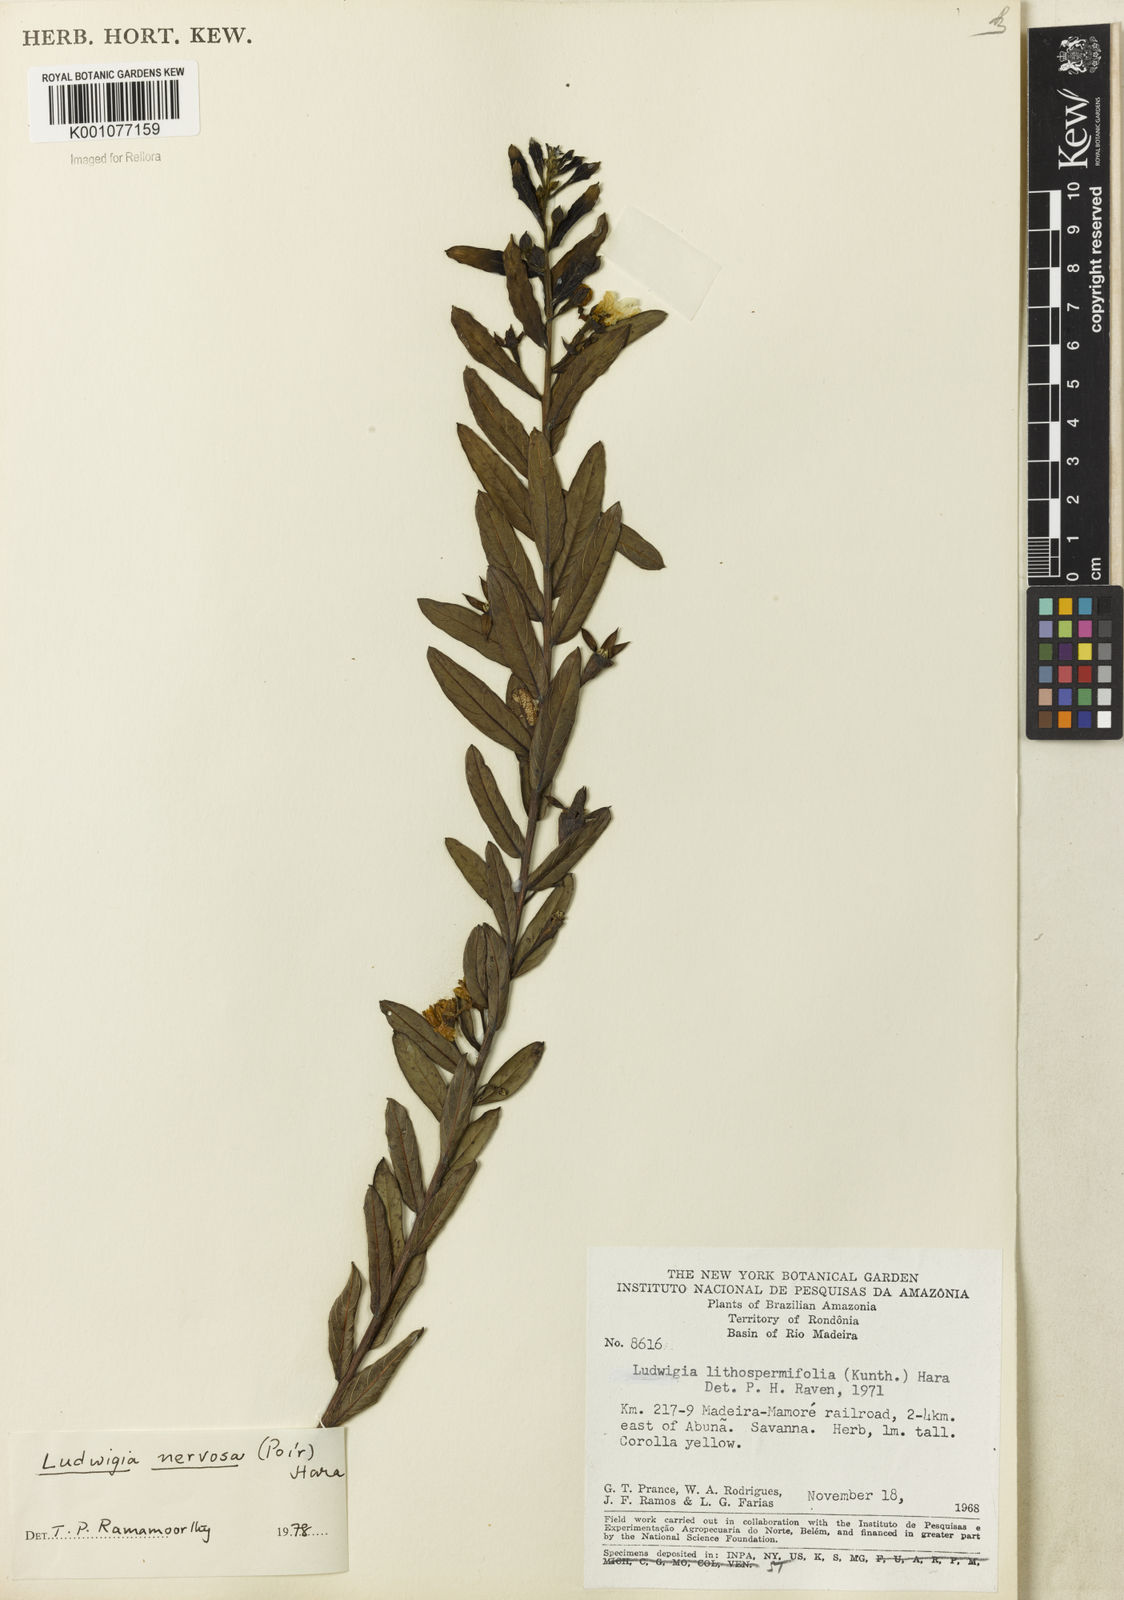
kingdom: Plantae
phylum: Tracheophyta
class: Magnoliopsida
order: Myrtales
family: Onagraceae
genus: Ludwigia
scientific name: Ludwigia nervosa
